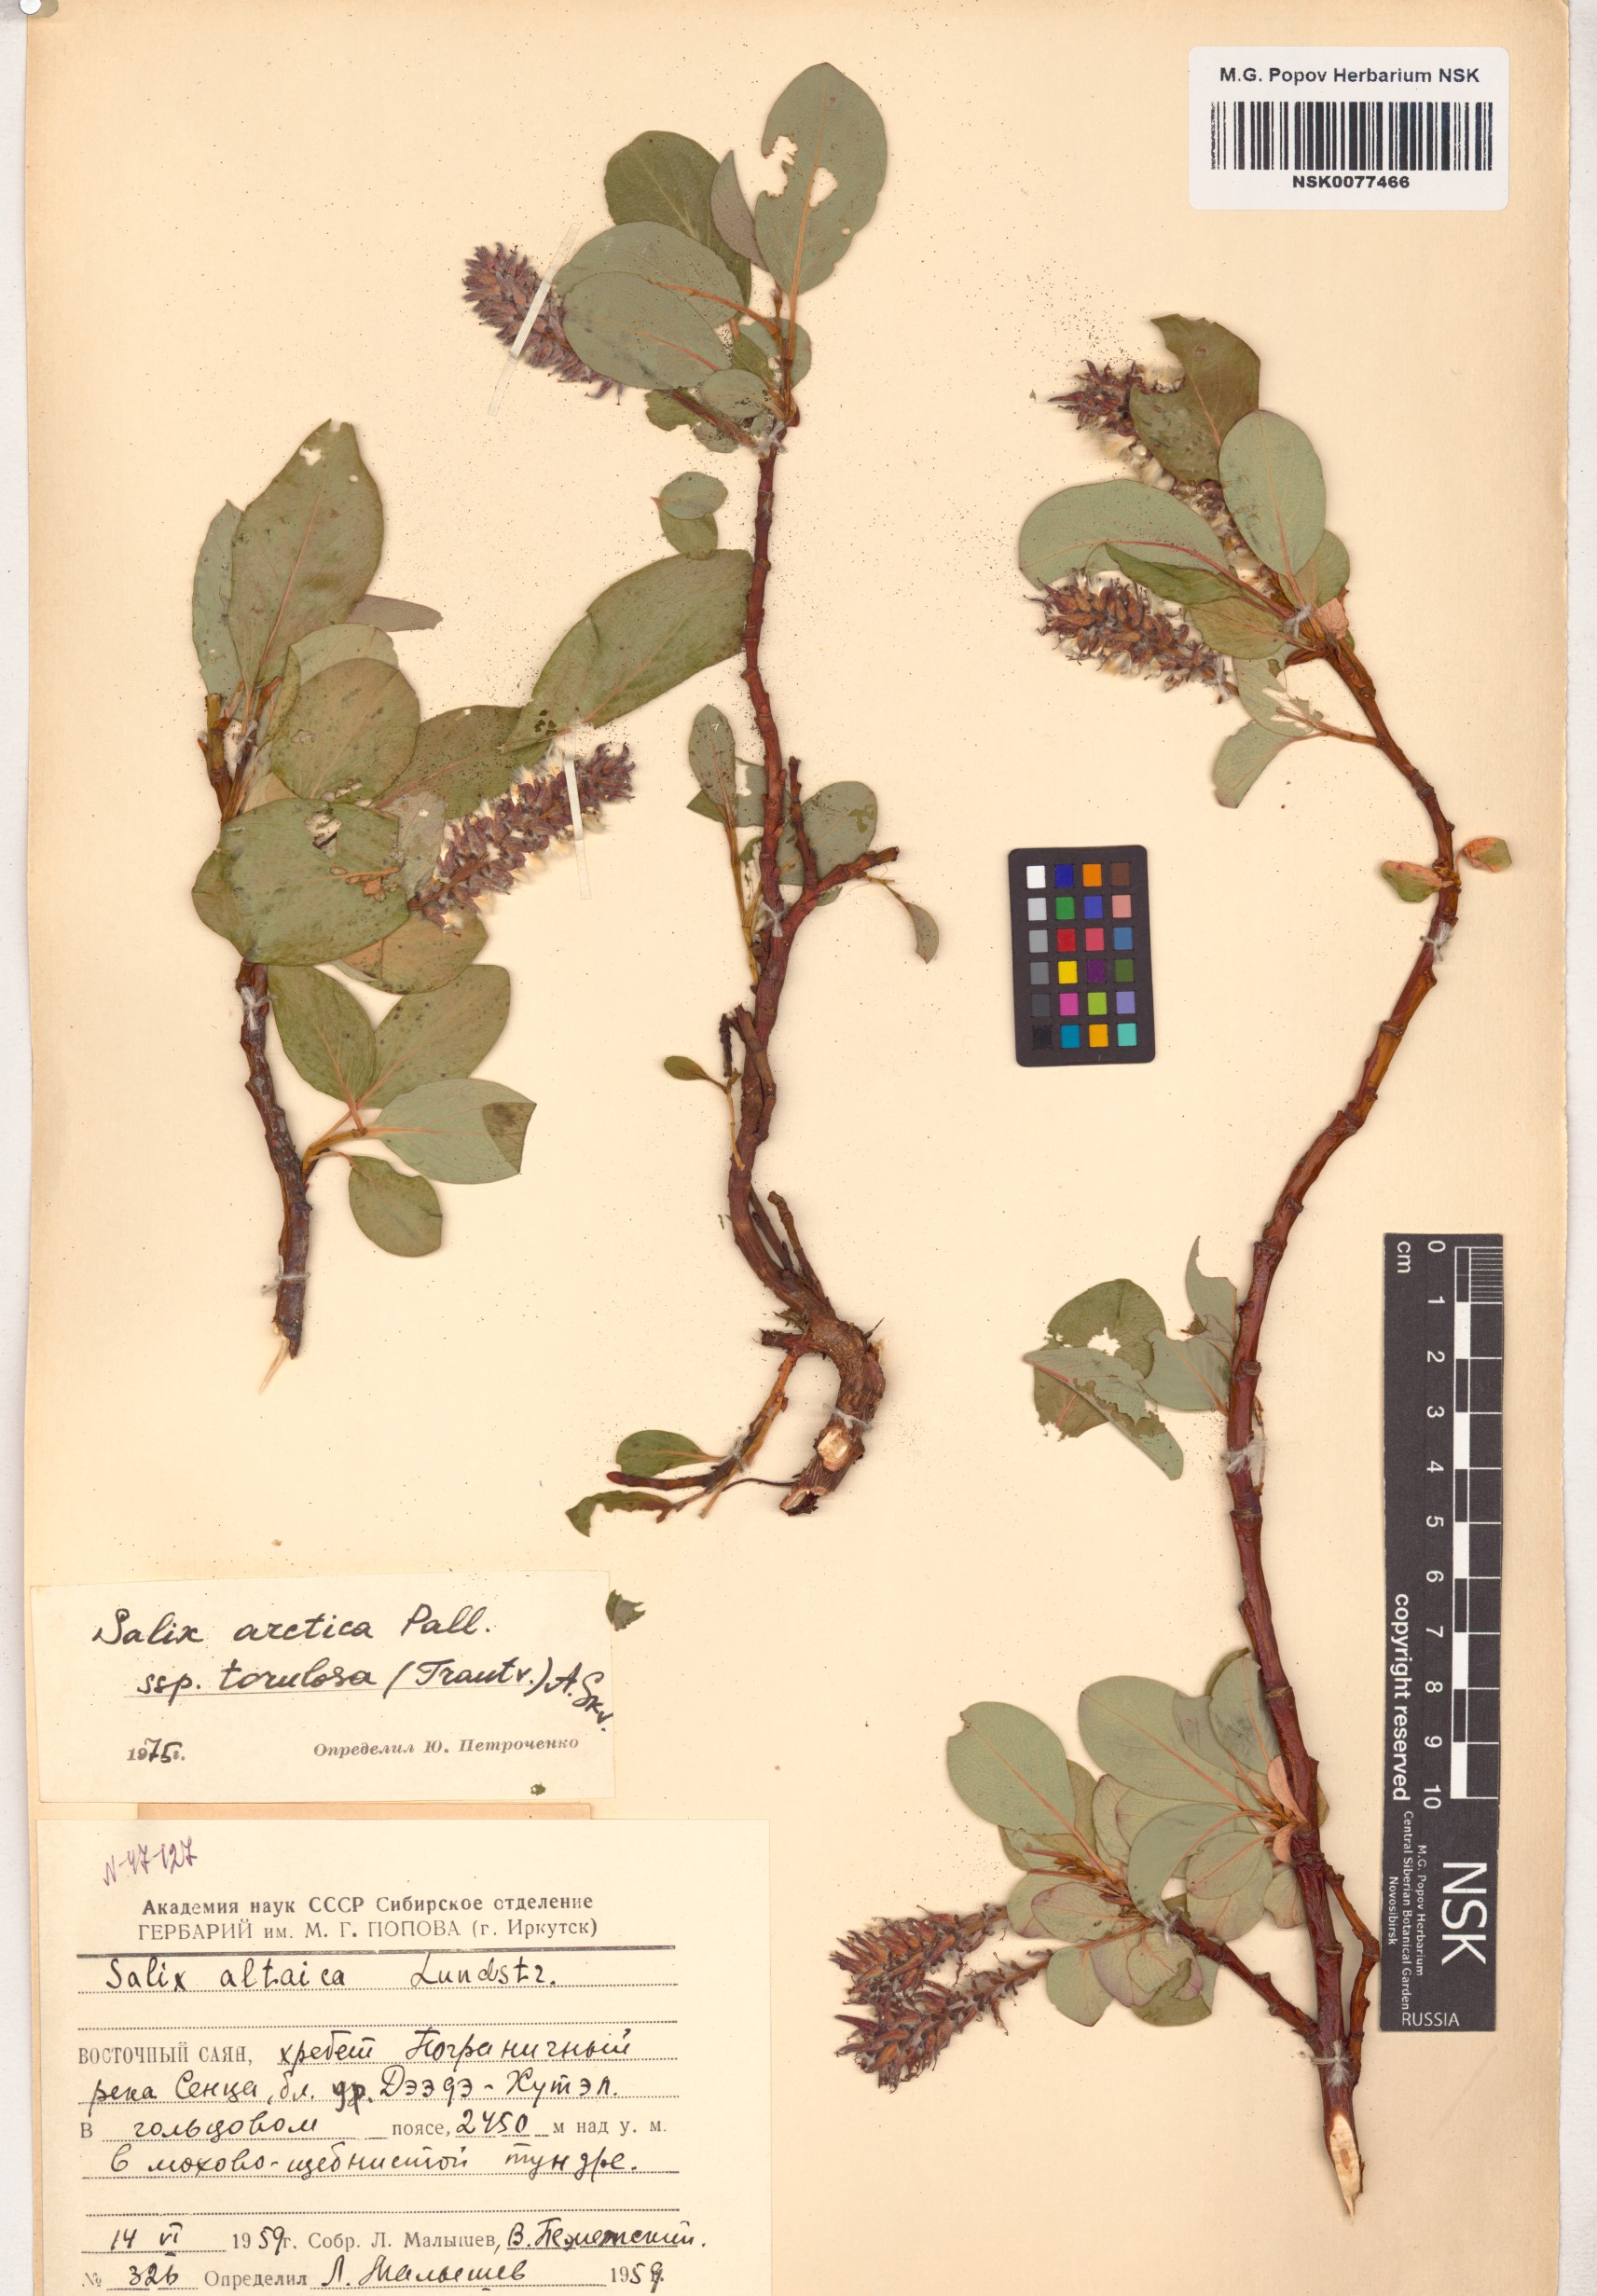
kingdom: Plantae
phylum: Tracheophyta
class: Magnoliopsida
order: Malpighiales
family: Salicaceae
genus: Salix
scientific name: Salix arctica
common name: Arctic willow
